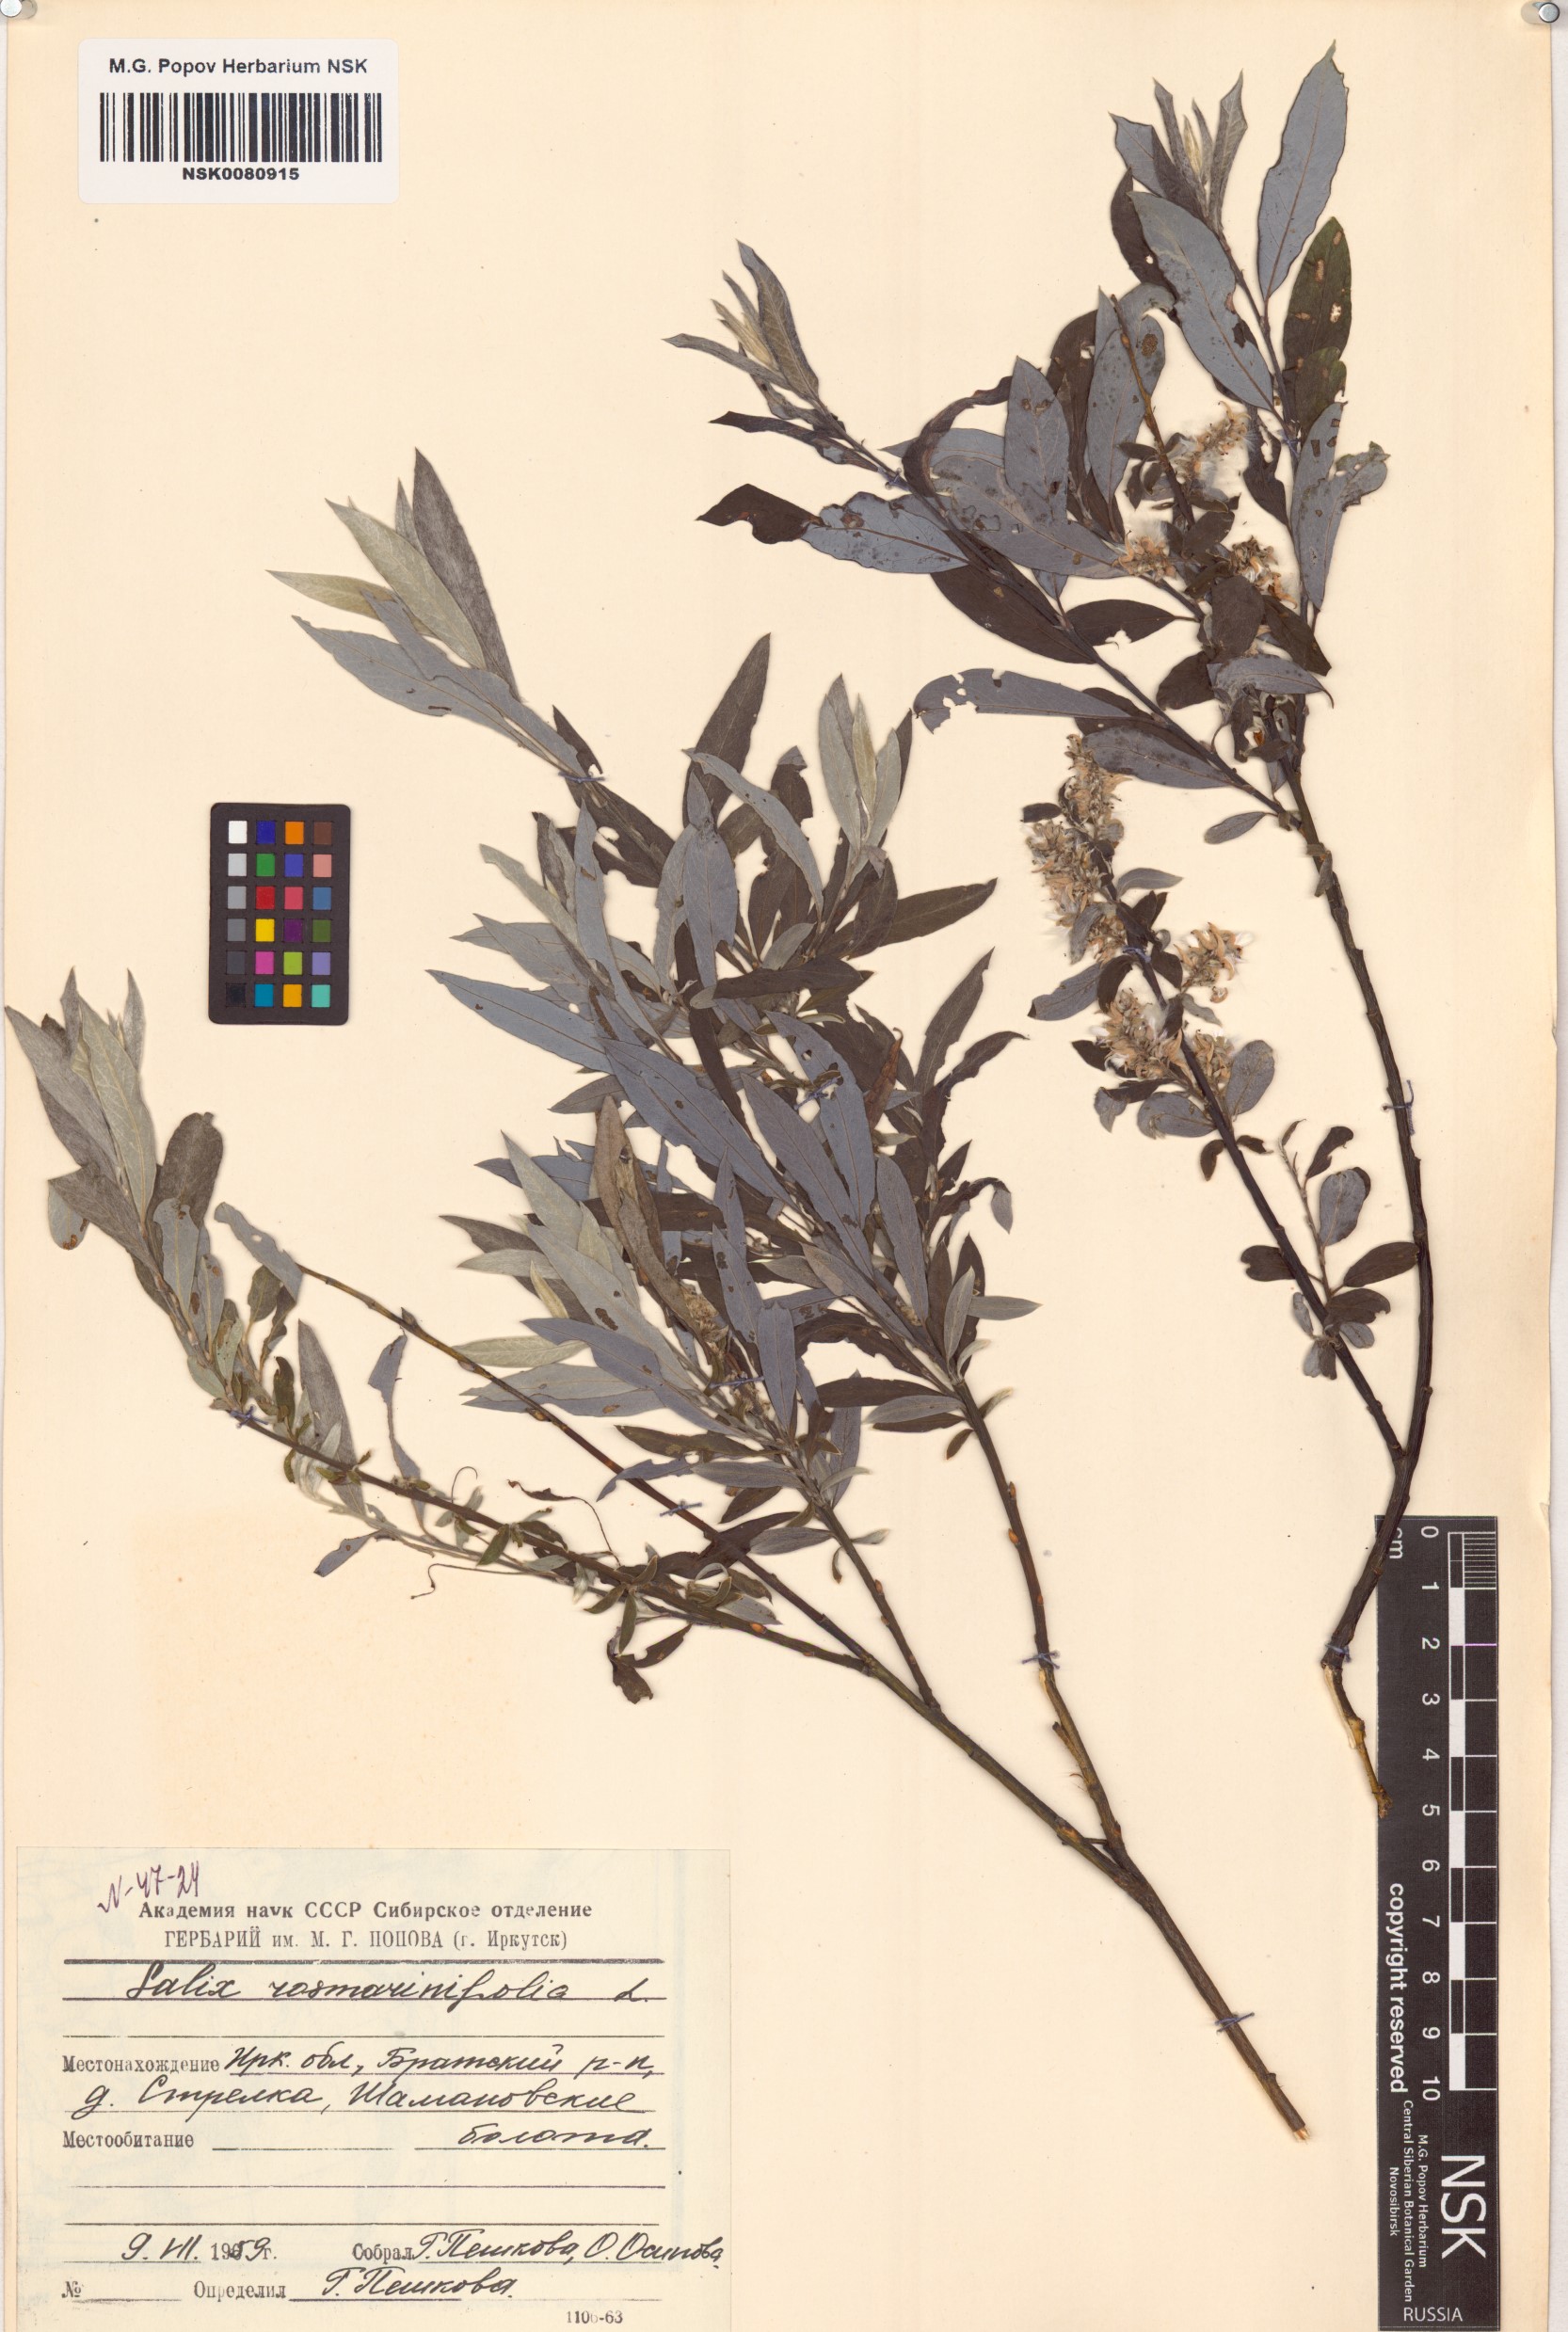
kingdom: Plantae
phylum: Tracheophyta
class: Magnoliopsida
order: Malpighiales
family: Salicaceae
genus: Salix
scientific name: Salix rosmarinifolia
